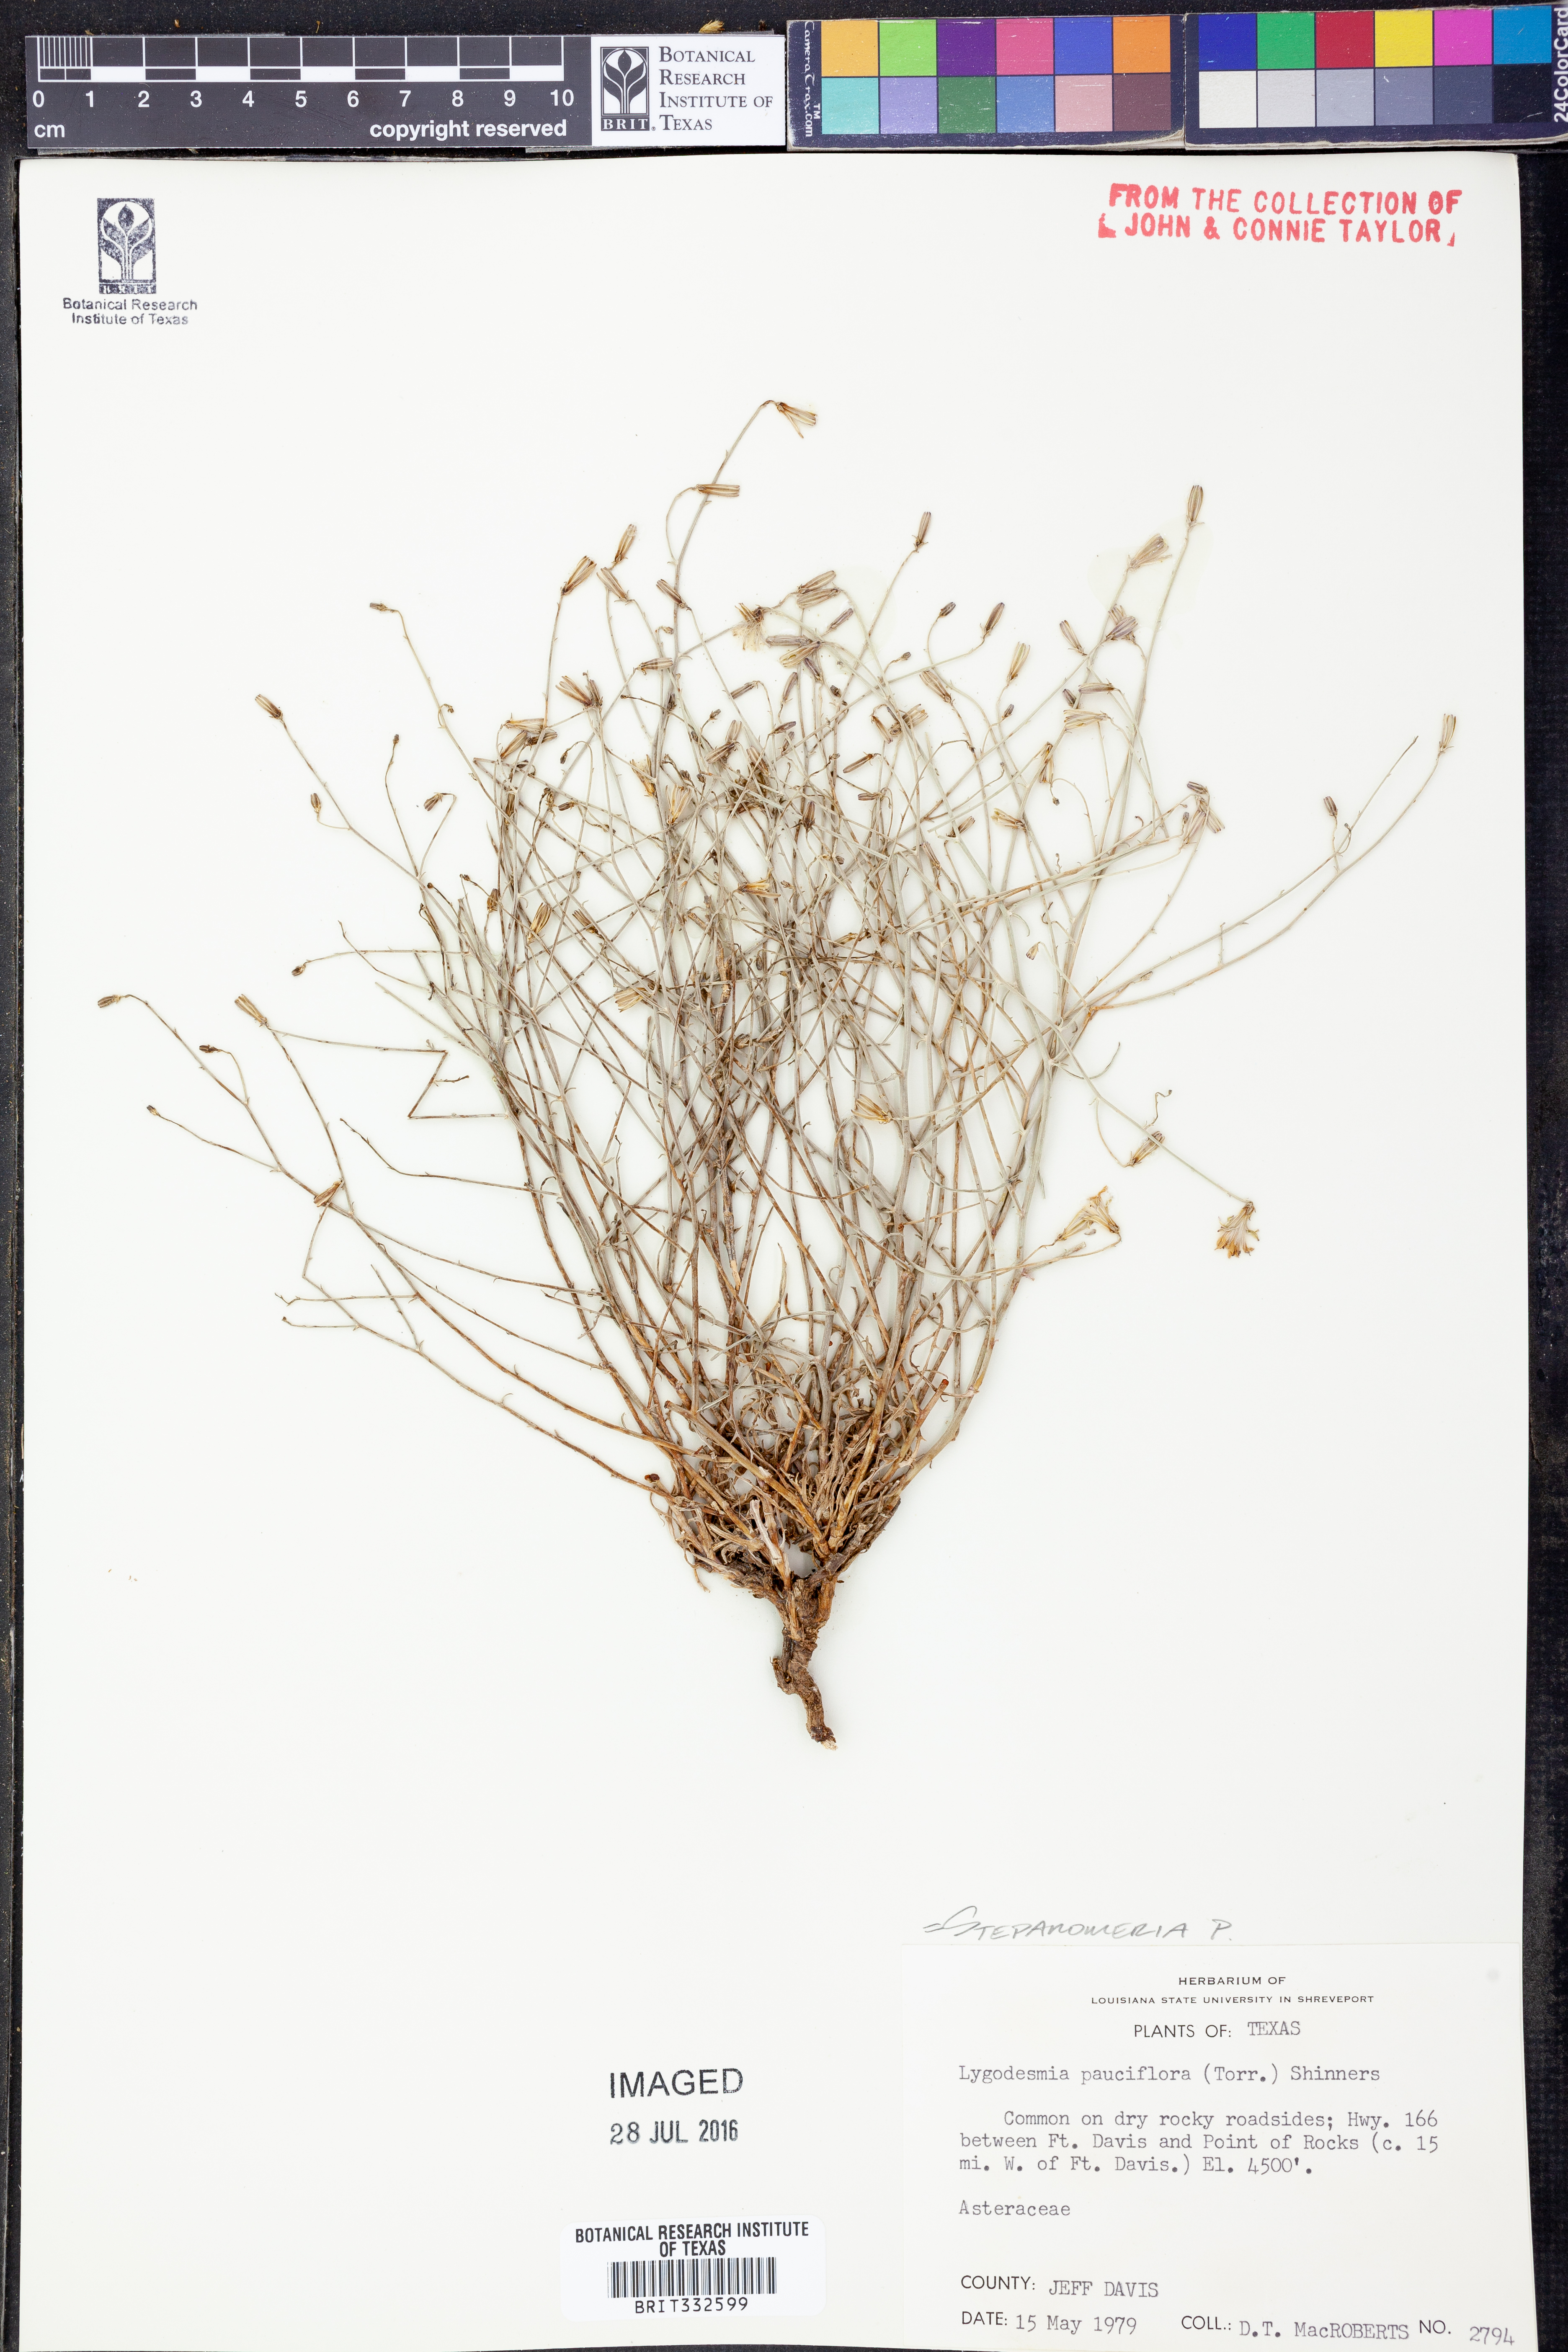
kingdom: Plantae
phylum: Tracheophyta
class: Magnoliopsida
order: Asterales
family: Asteraceae
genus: Stephanomeria
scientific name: Stephanomeria pauciflora
